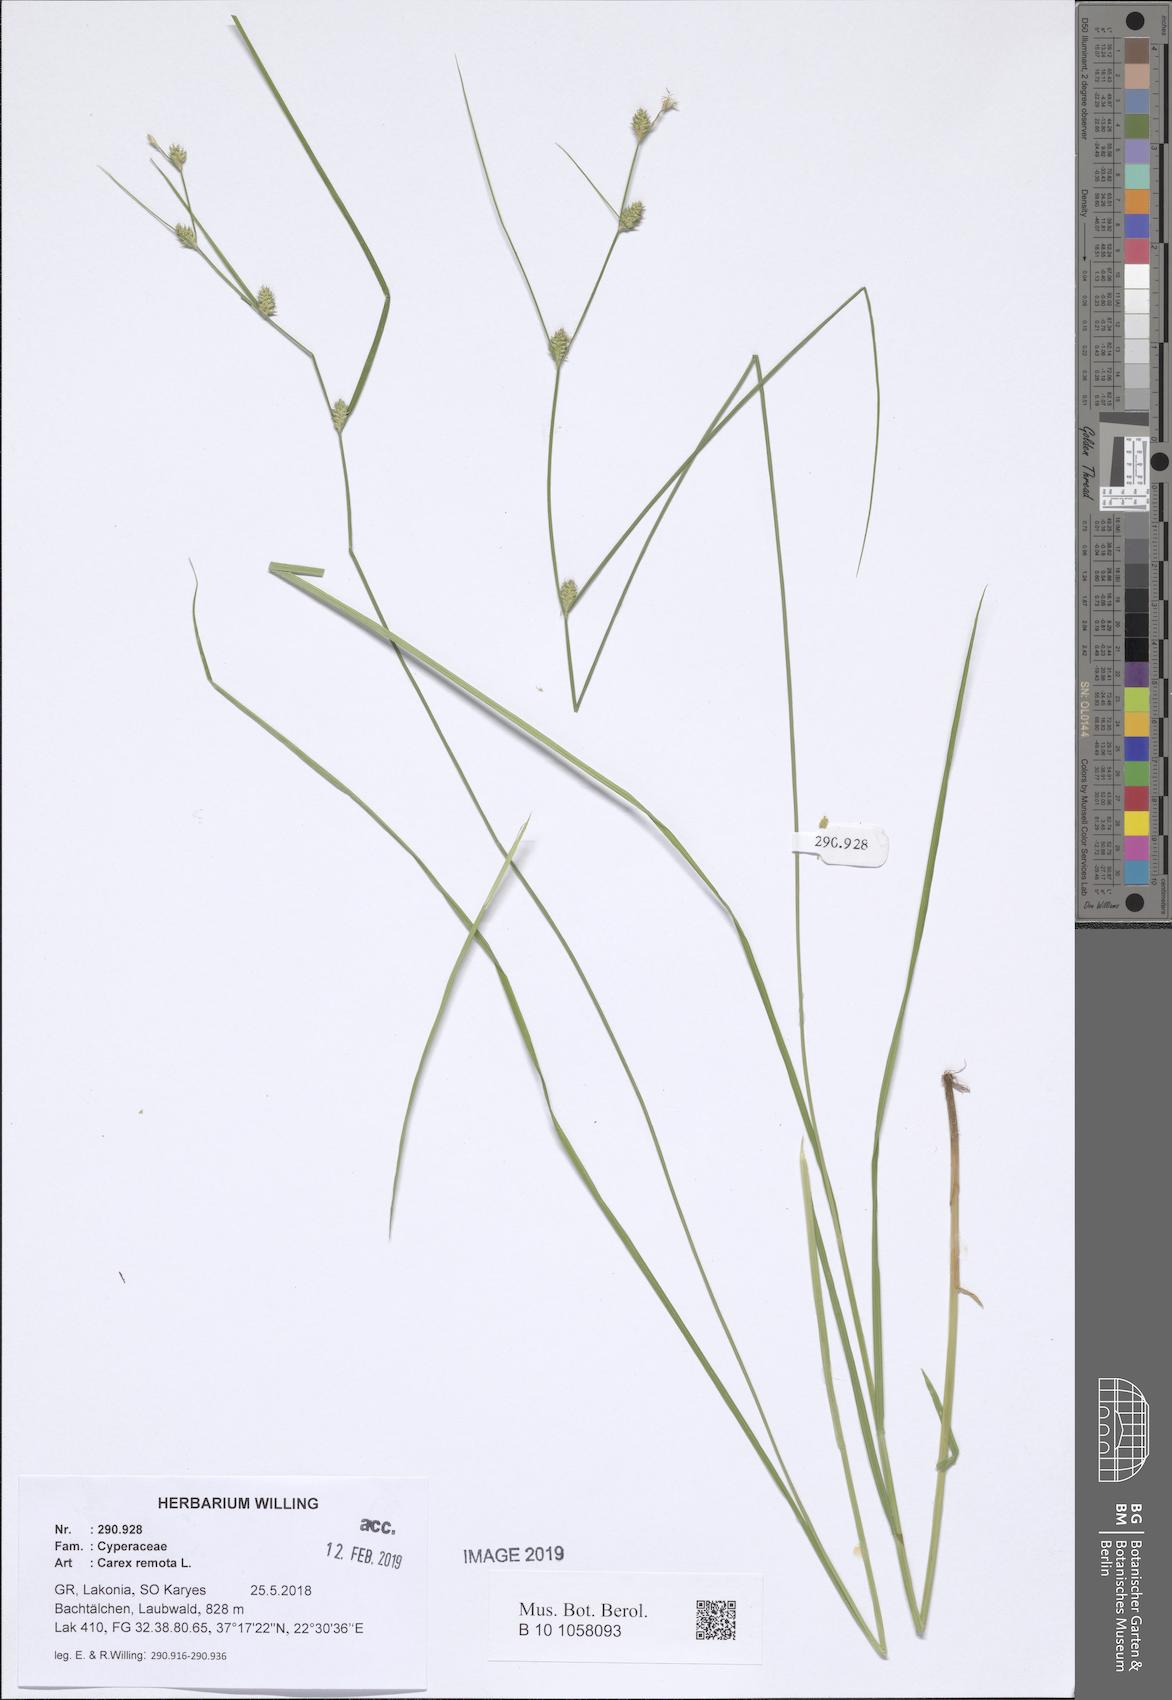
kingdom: Plantae
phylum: Tracheophyta
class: Liliopsida
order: Poales
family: Cyperaceae
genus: Carex
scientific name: Carex remota
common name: Remote sedge
